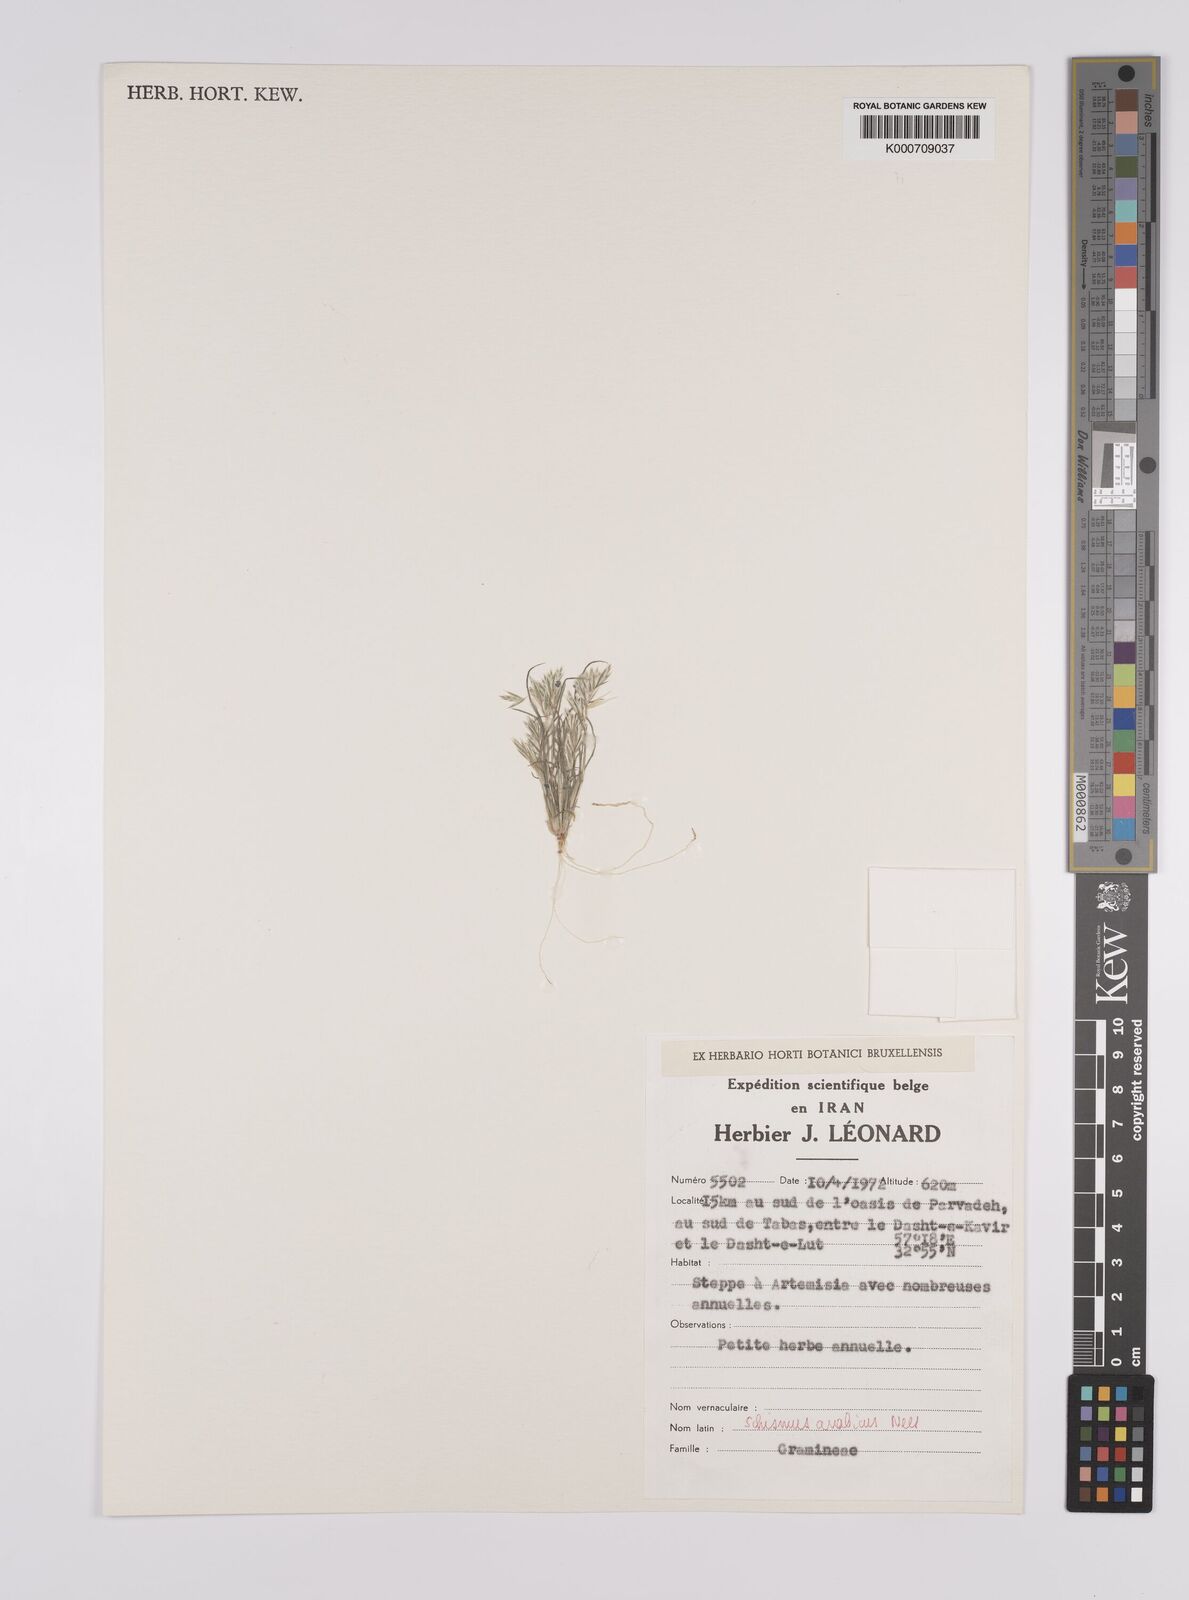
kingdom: Plantae
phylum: Tracheophyta
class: Liliopsida
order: Poales
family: Poaceae
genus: Schismus
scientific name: Schismus arabicus
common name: Arabian schismus
